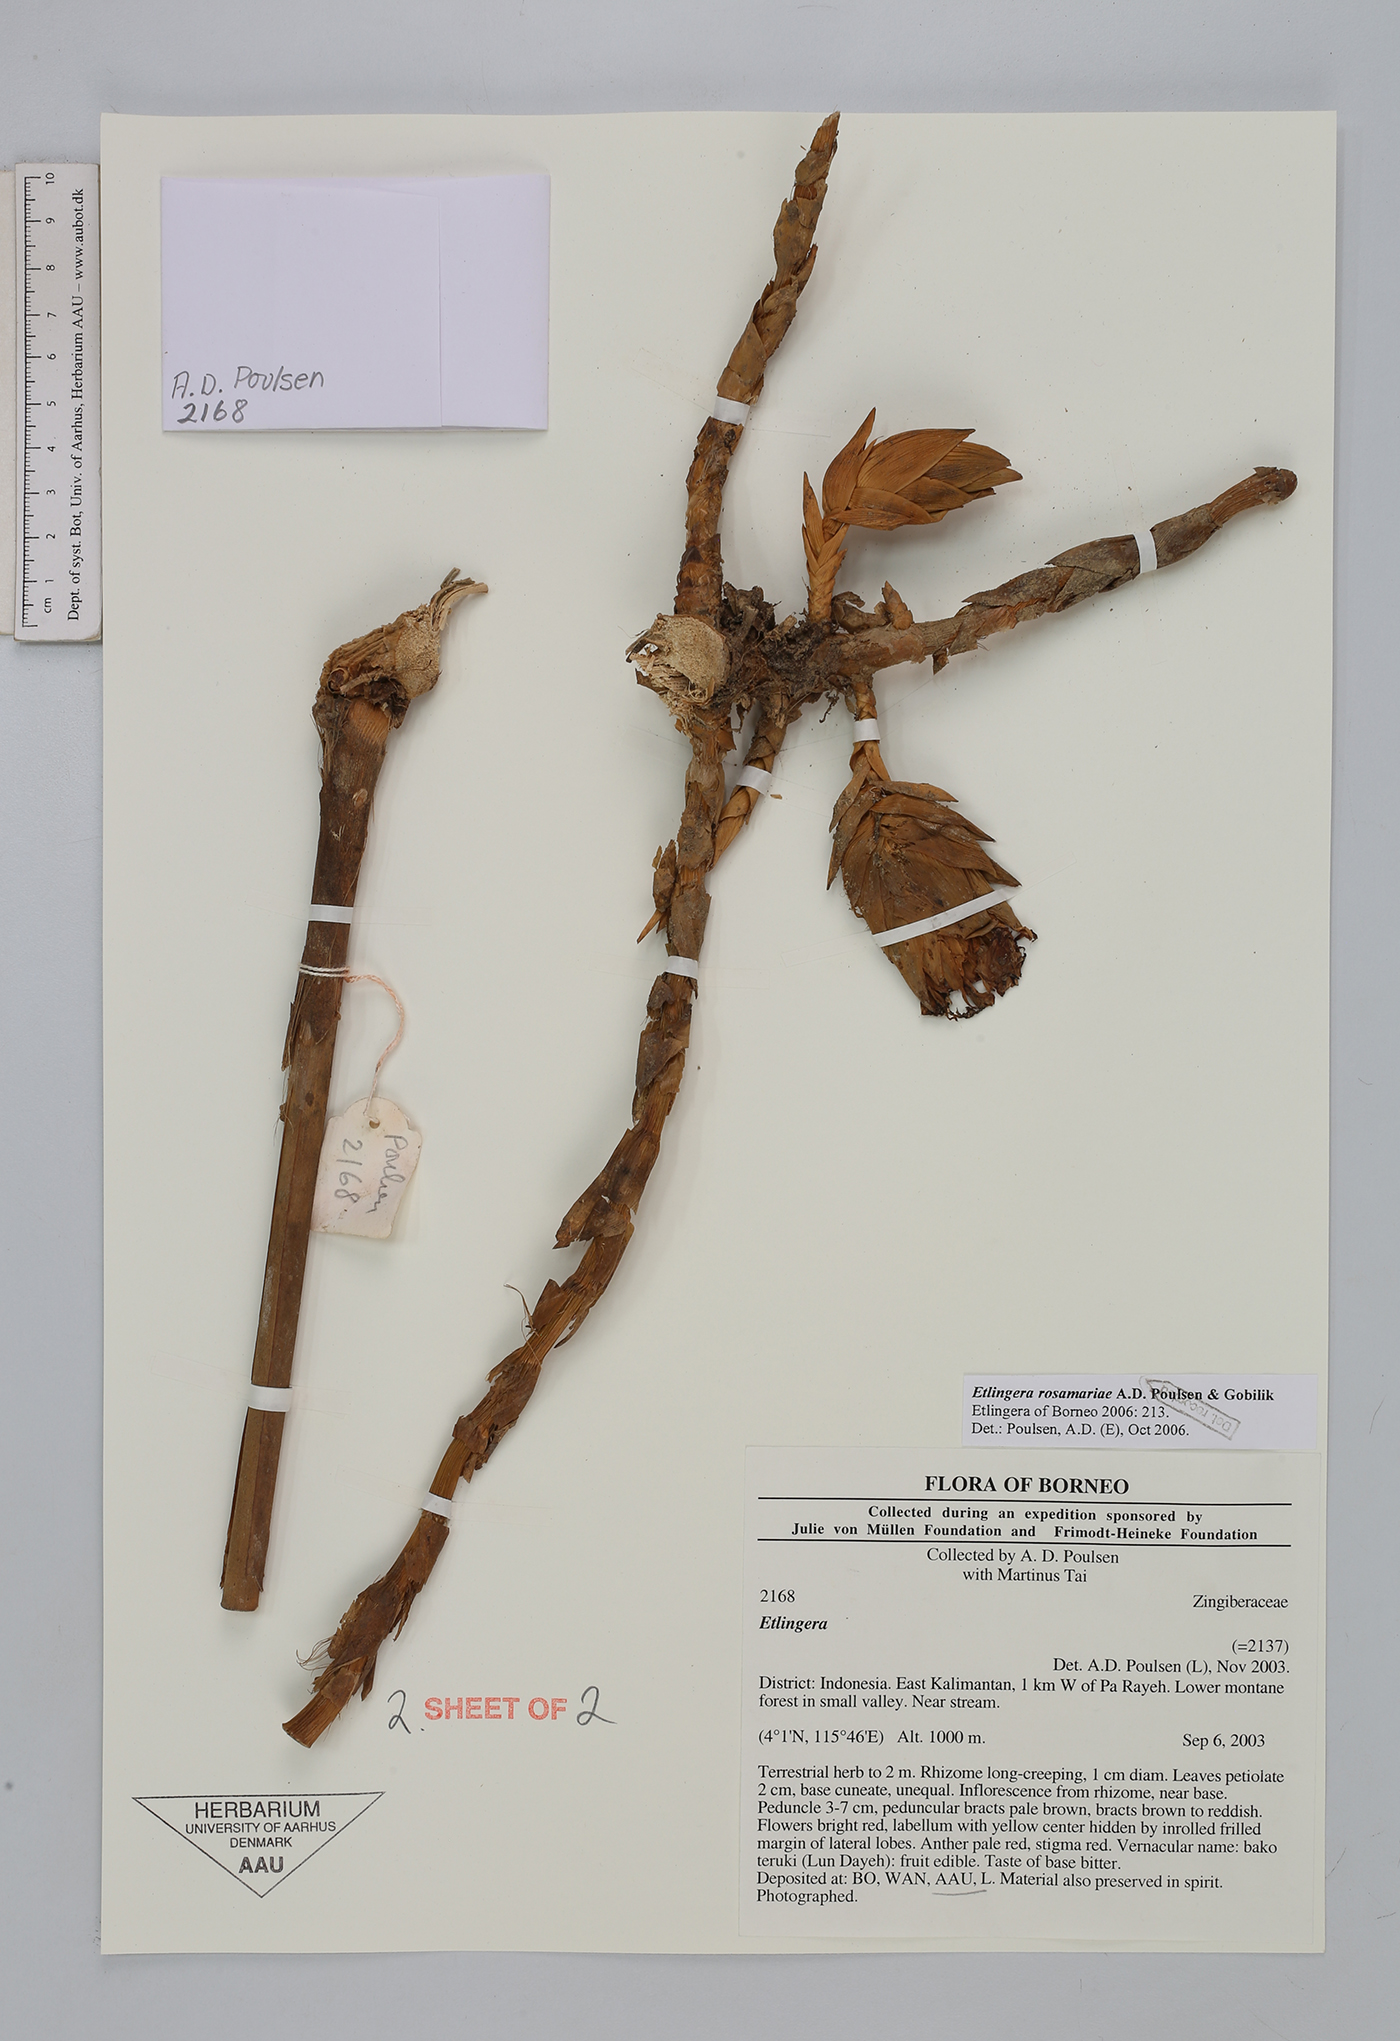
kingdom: Plantae
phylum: Tracheophyta
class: Liliopsida
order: Zingiberales
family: Zingiberaceae
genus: Etlingera
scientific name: Etlingera rosamariae
